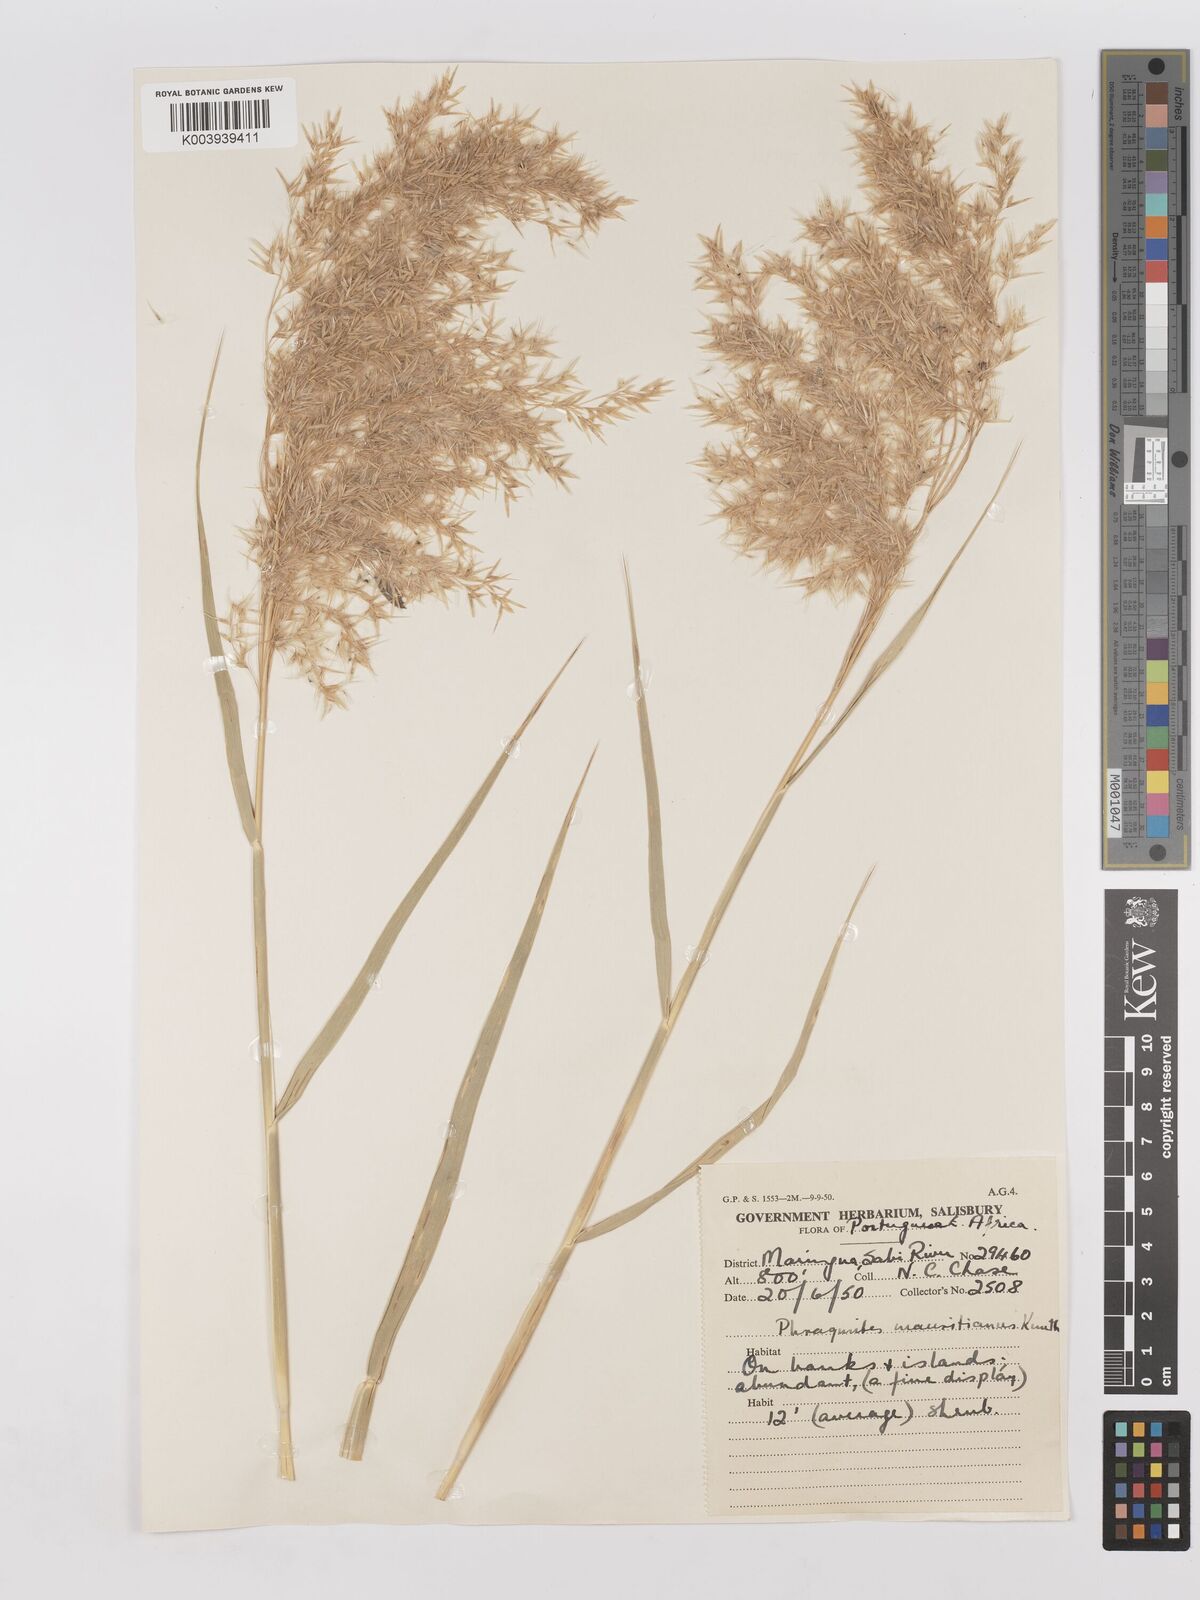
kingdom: Plantae
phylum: Tracheophyta
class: Liliopsida
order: Poales
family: Poaceae
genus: Phragmites
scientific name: Phragmites mauritianus
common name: Reed grass
